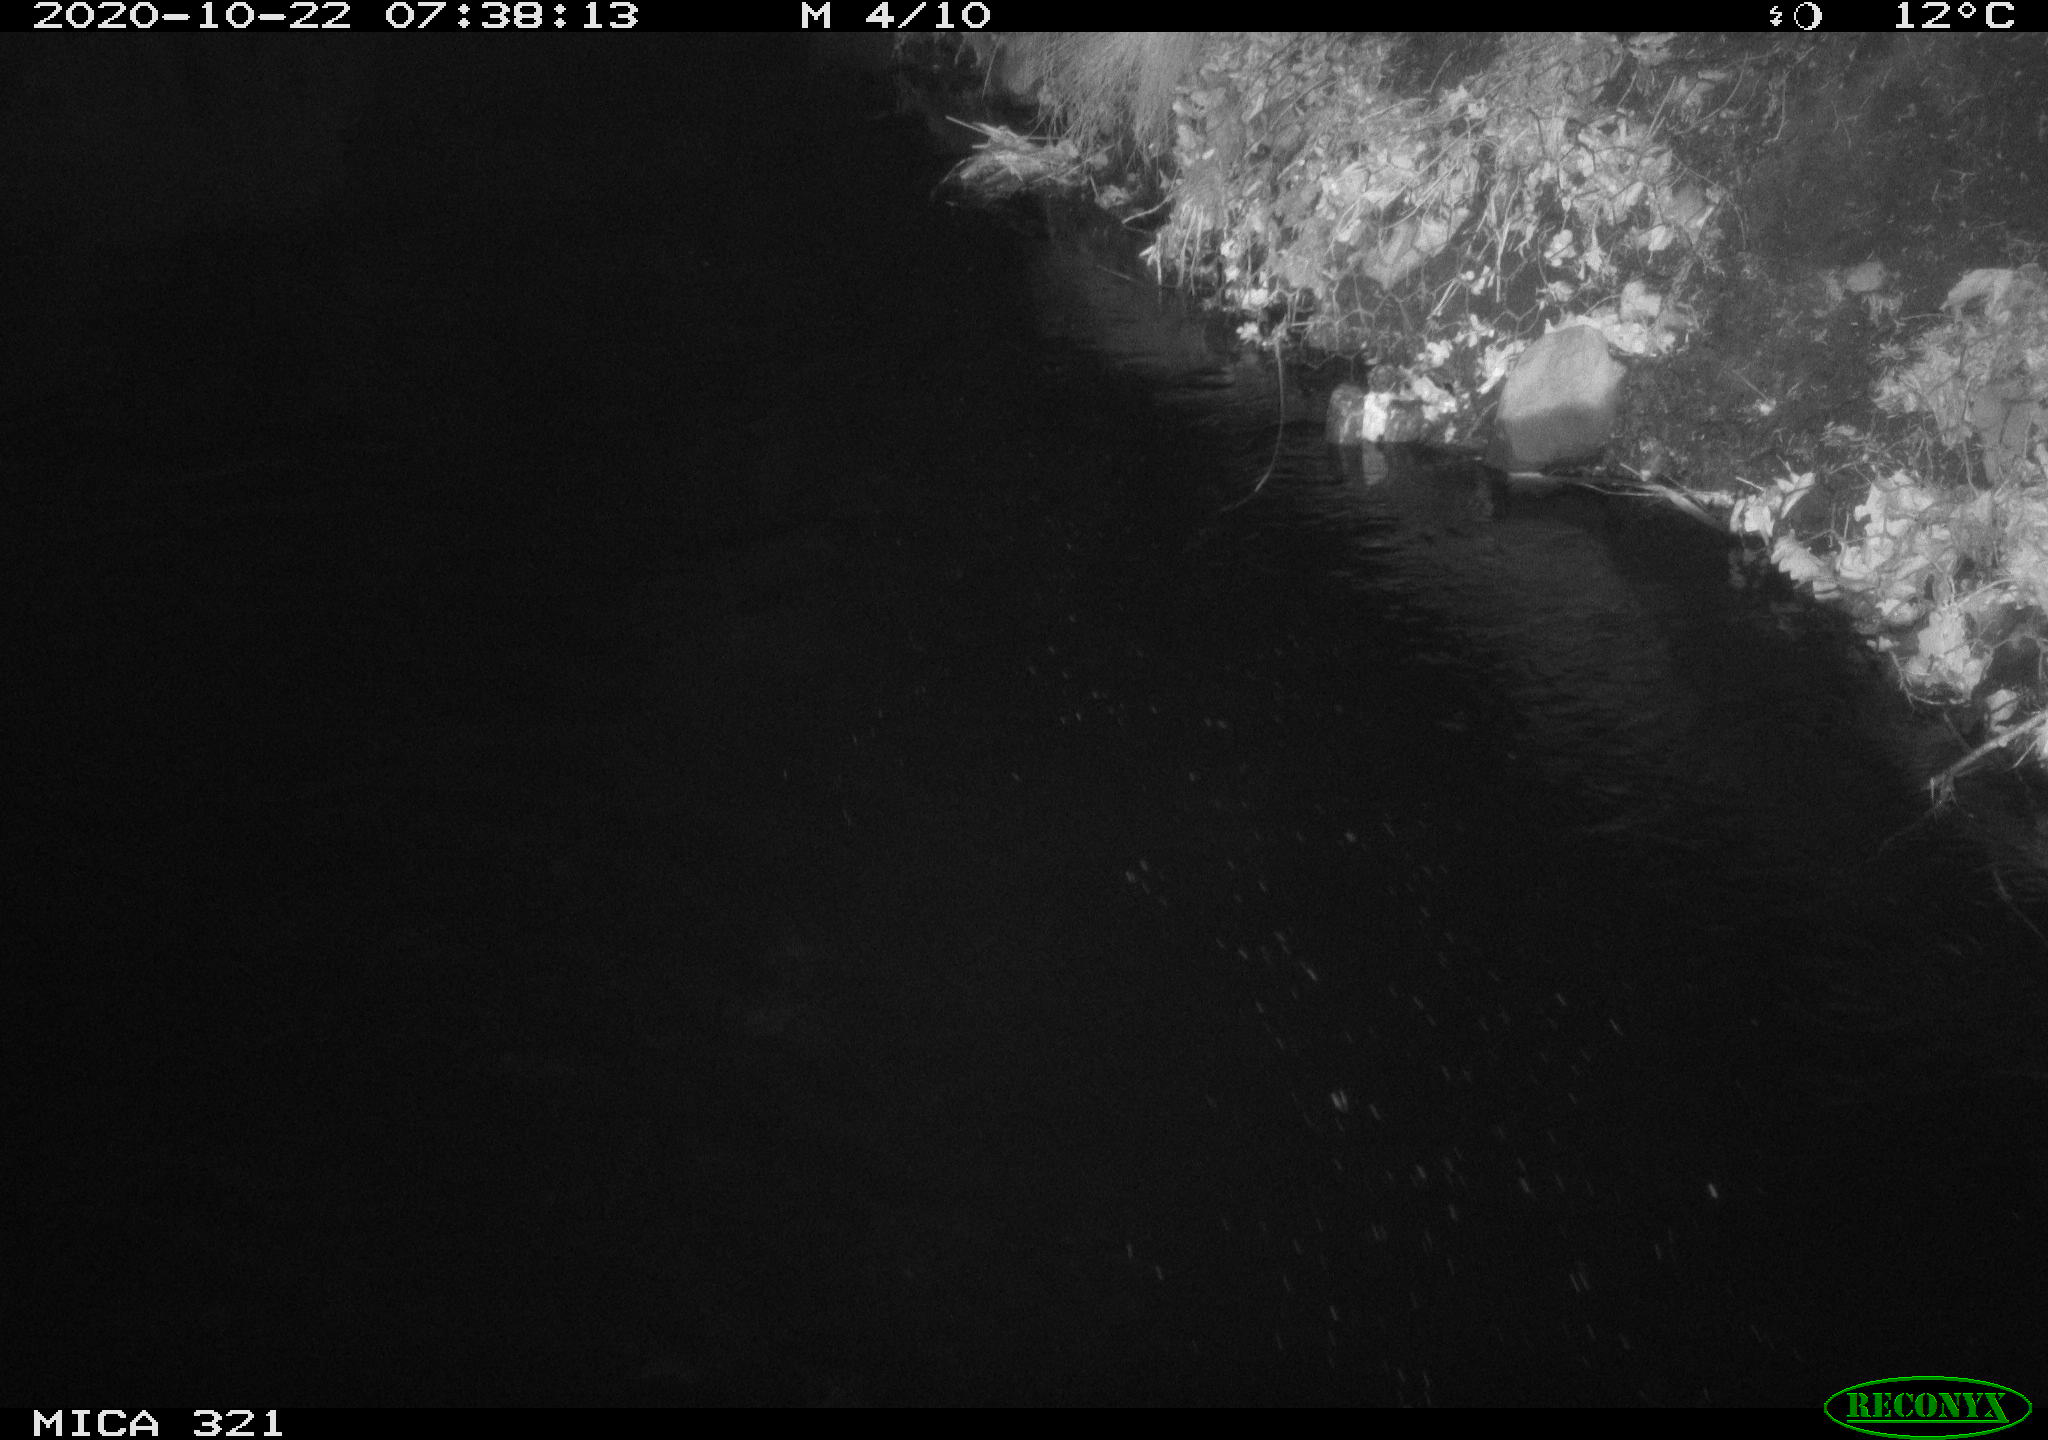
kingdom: Animalia
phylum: Chordata
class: Aves
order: Anseriformes
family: Anatidae
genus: Anas
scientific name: Anas platyrhynchos
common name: Mallard
